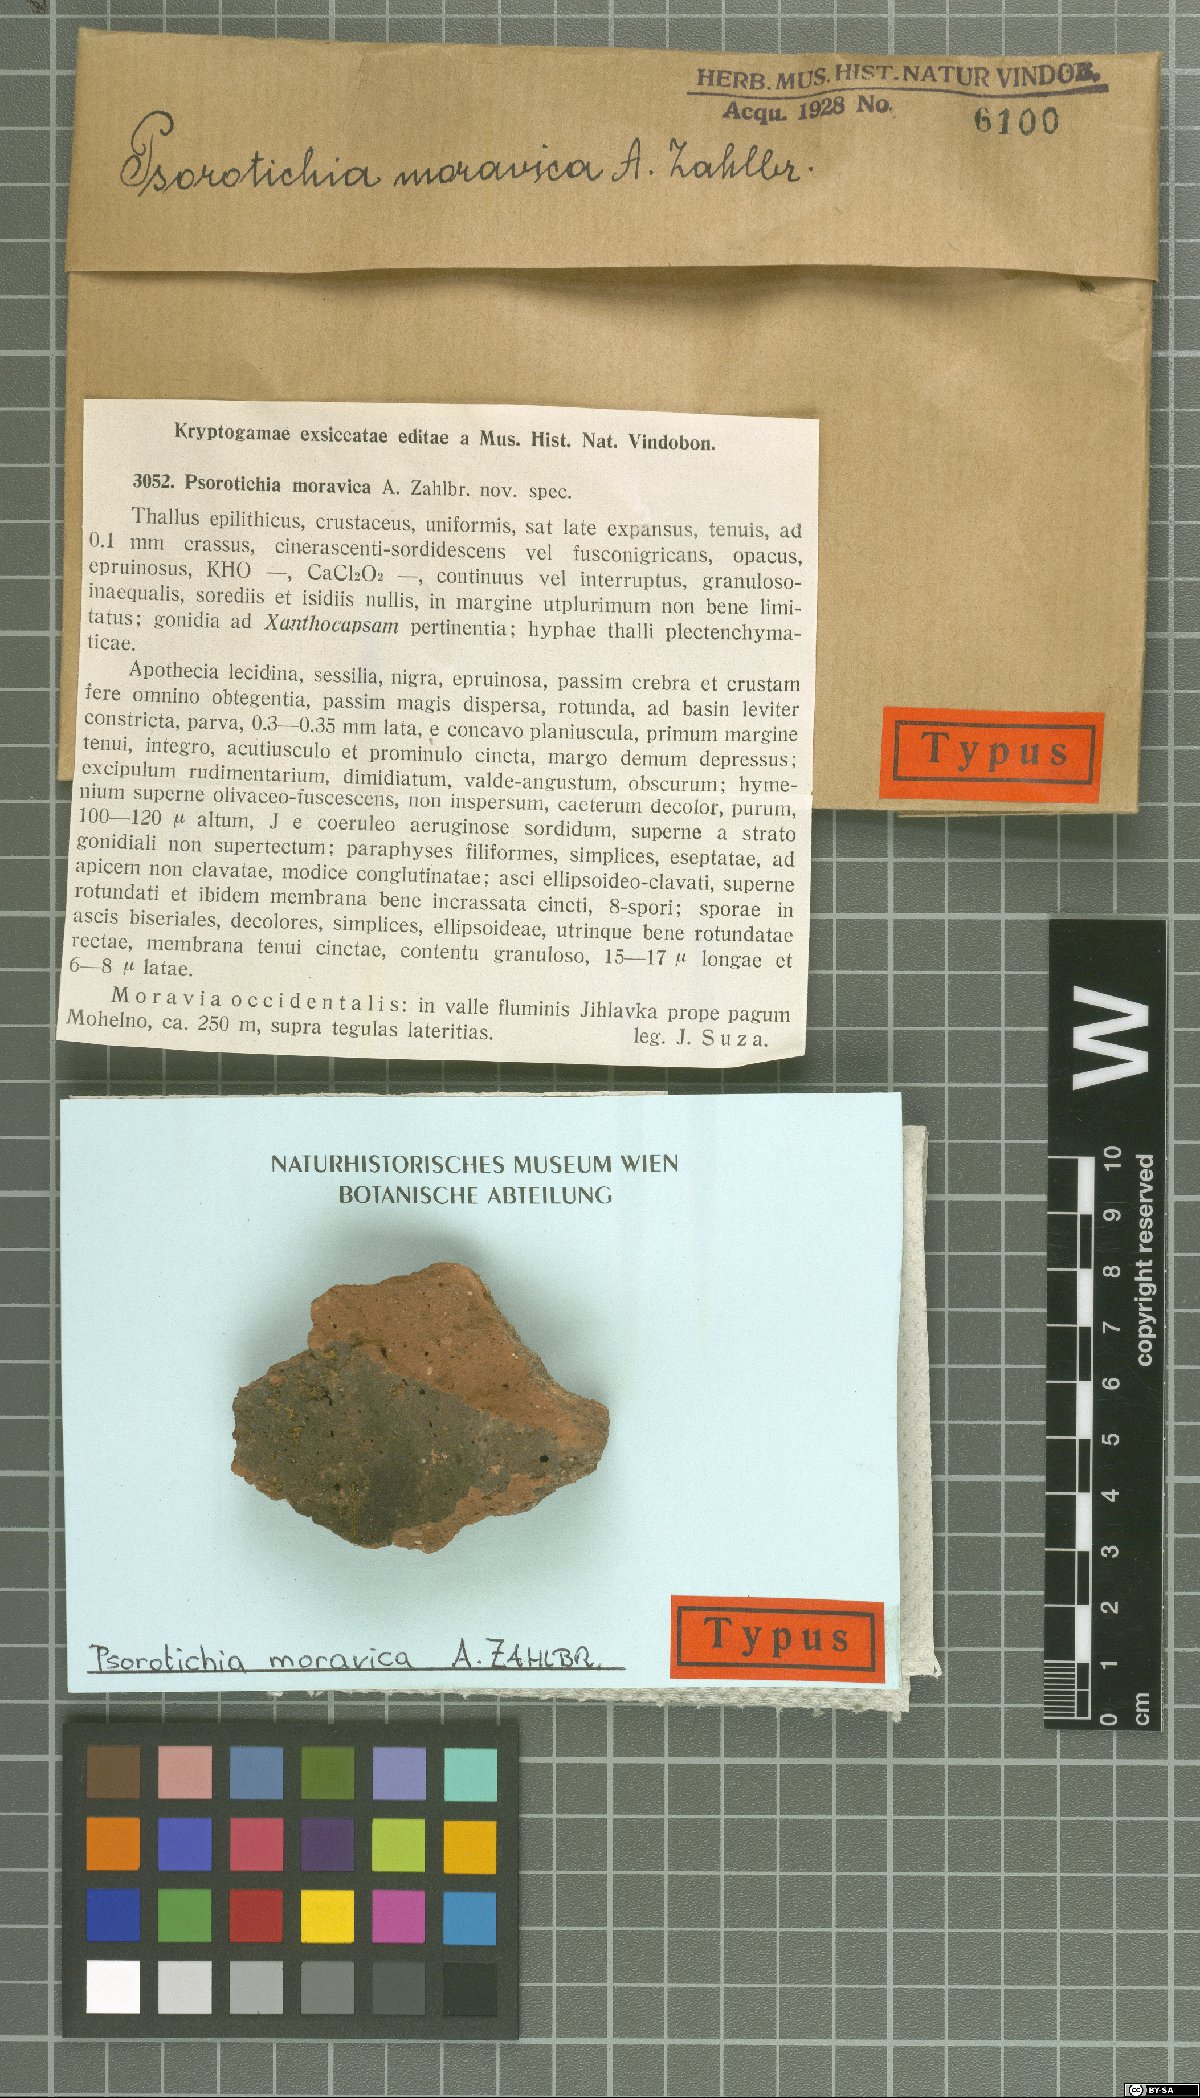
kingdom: Fungi
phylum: Ascomycota
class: Lichinomycetes
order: Lichinales
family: Lichinaceae
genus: Psorotichia
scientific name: Psorotichia moravica
